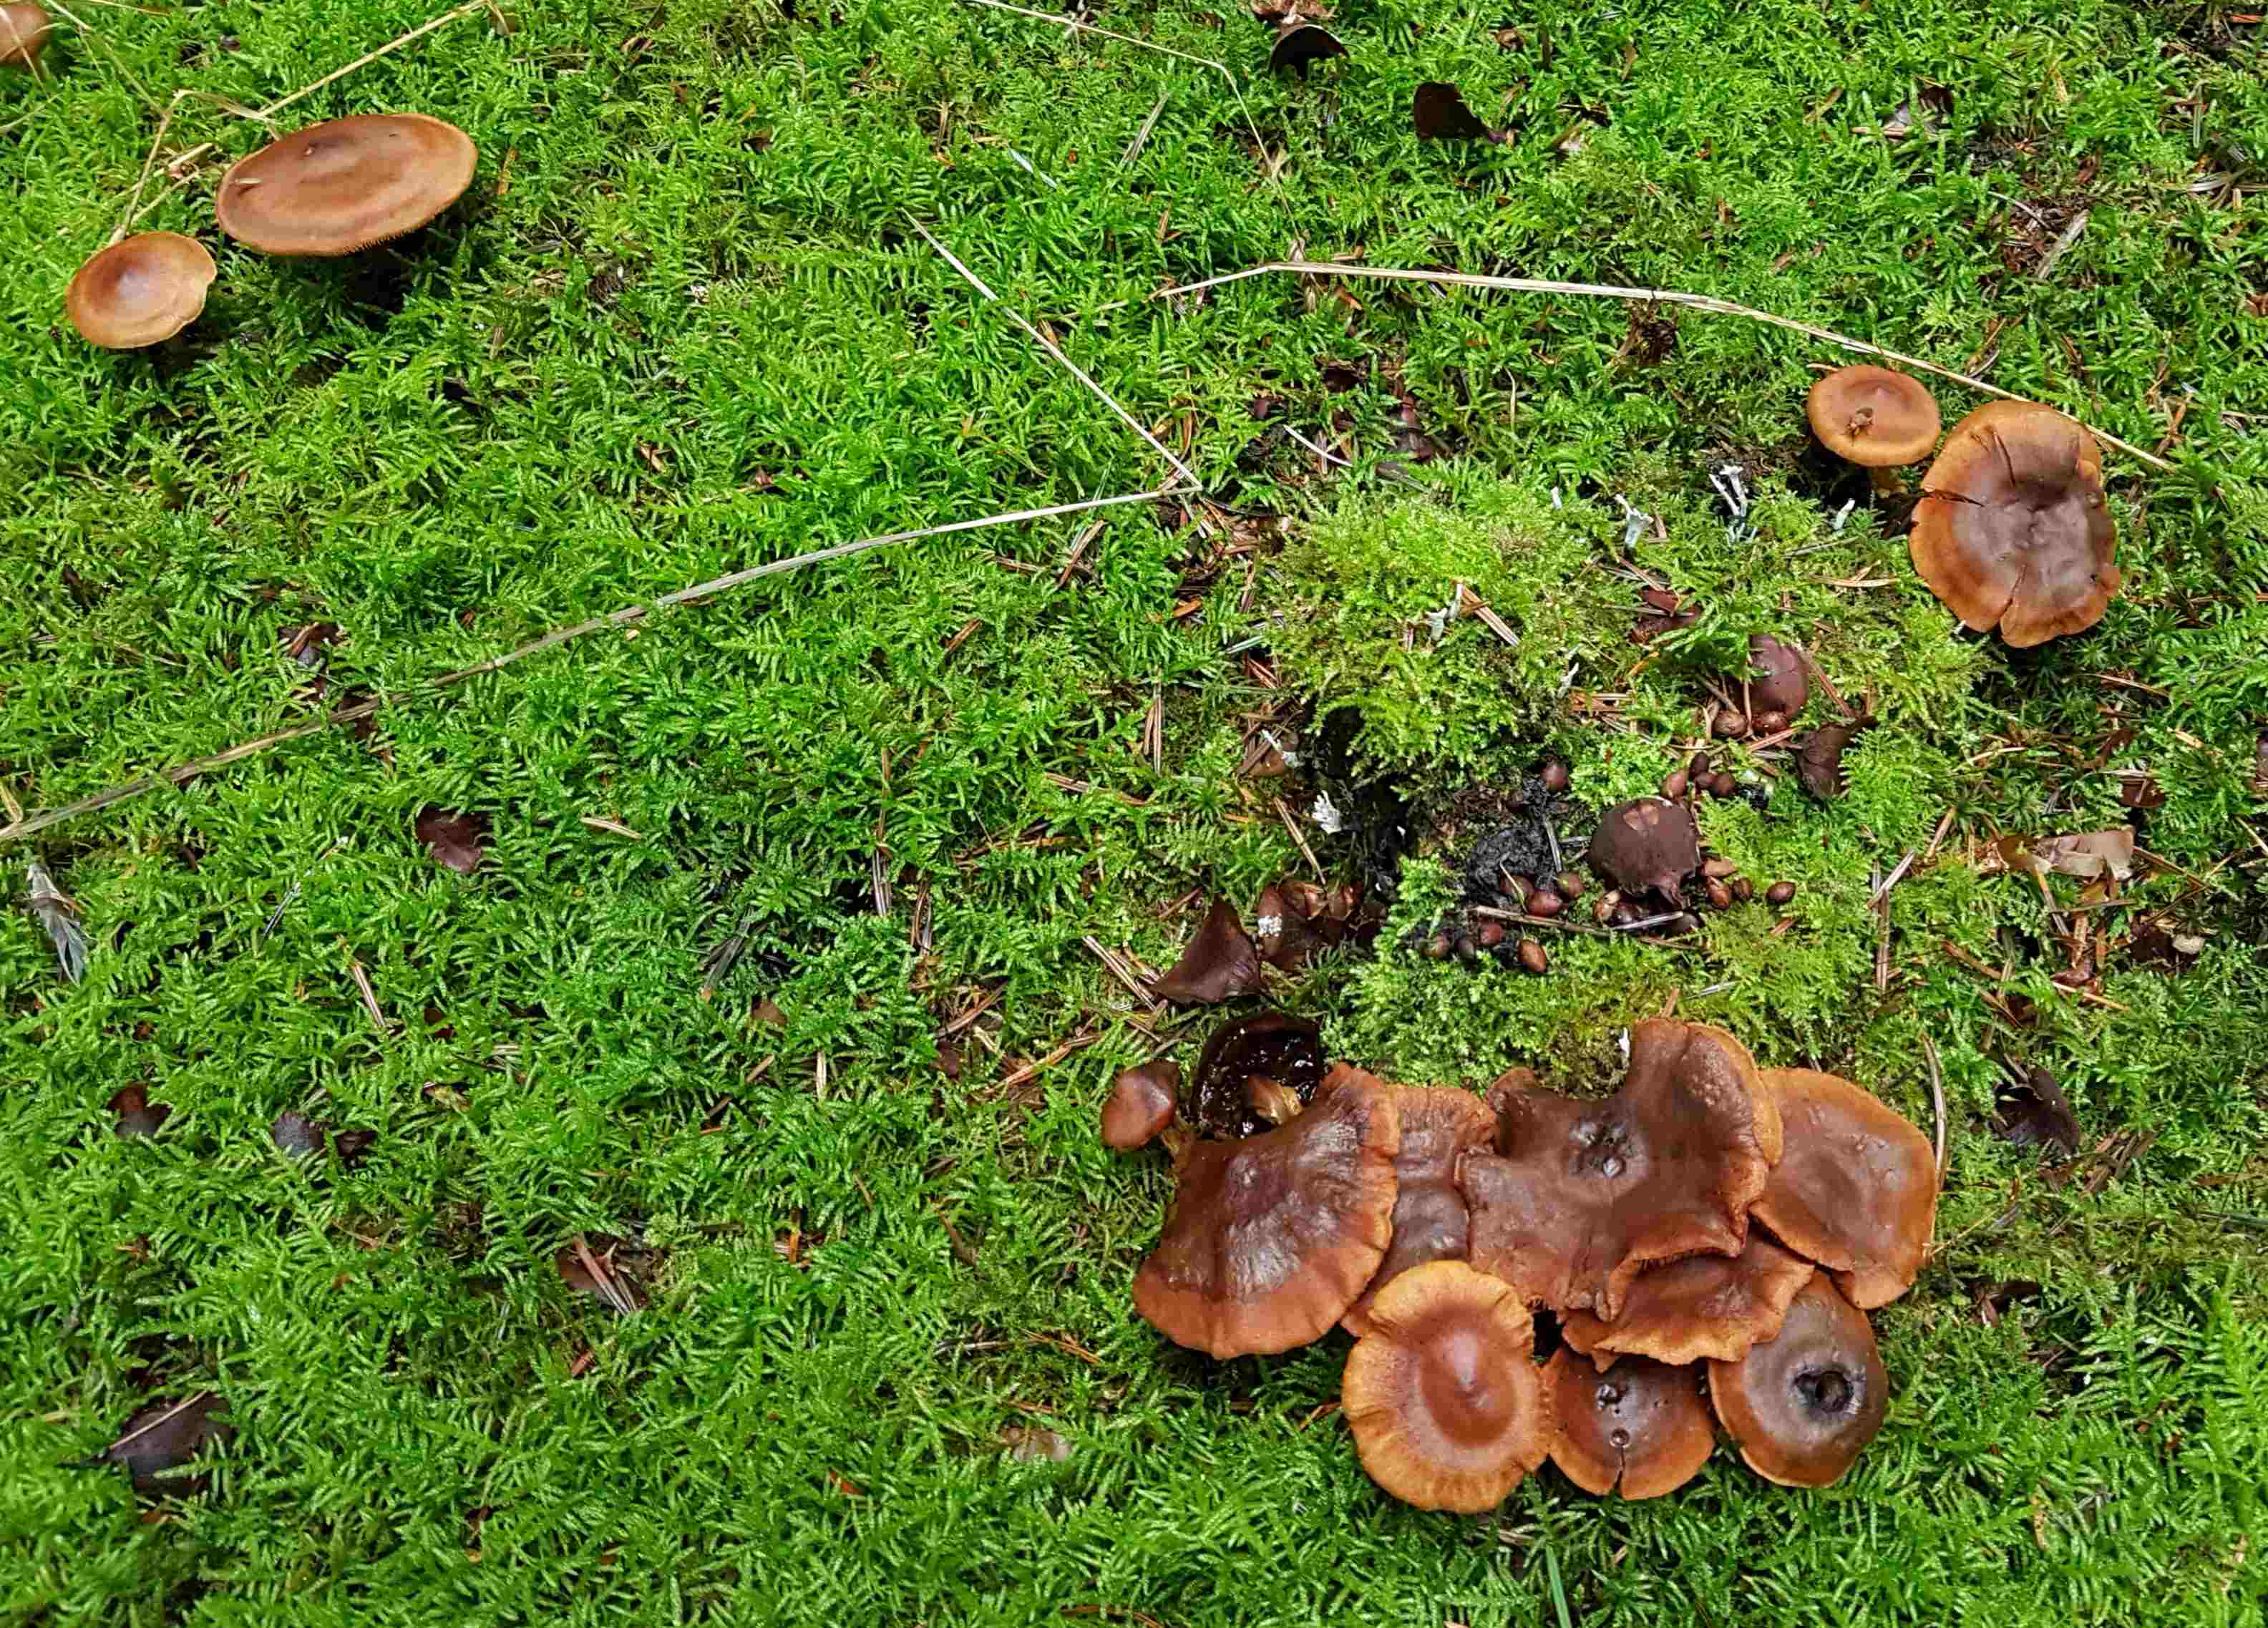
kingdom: Fungi
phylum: Basidiomycota
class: Agaricomycetes
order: Agaricales
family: Cortinariaceae
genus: Cortinarius
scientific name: Cortinarius
